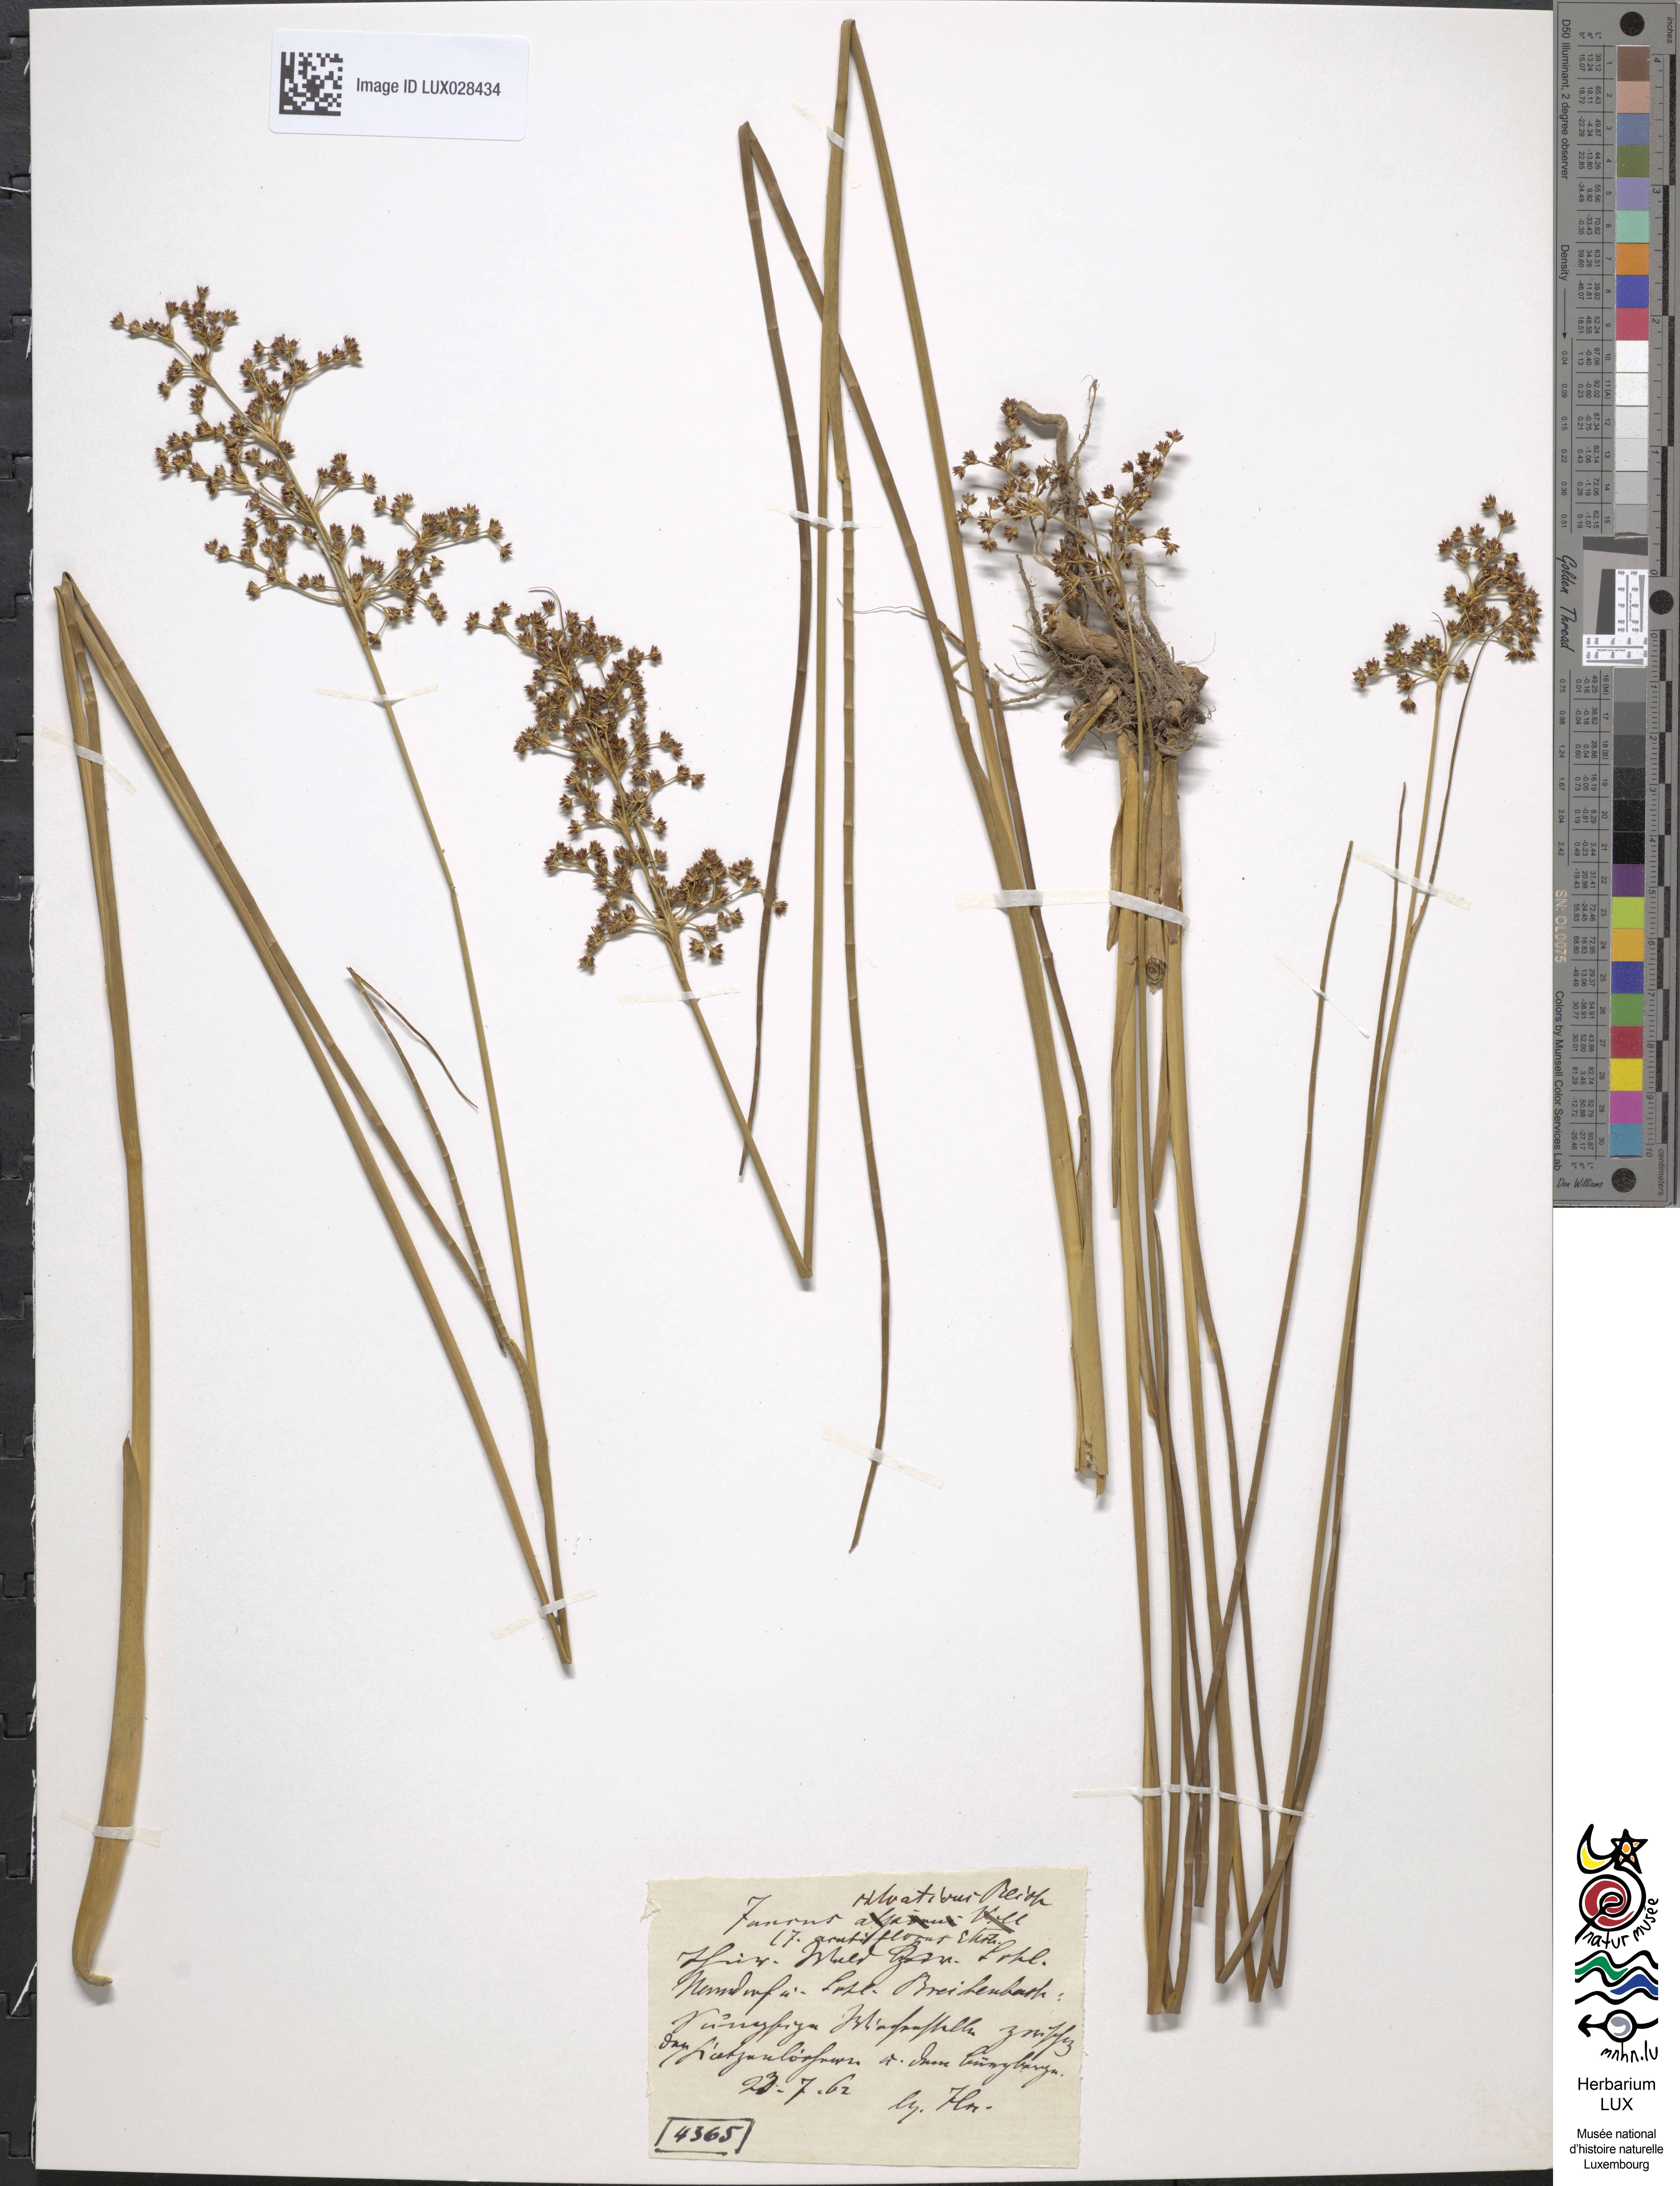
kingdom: Plantae
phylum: Tracheophyta
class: Liliopsida
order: Poales
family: Juncaceae
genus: Juncus
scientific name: Juncus acutiflorus
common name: Sharp-flowered rush
